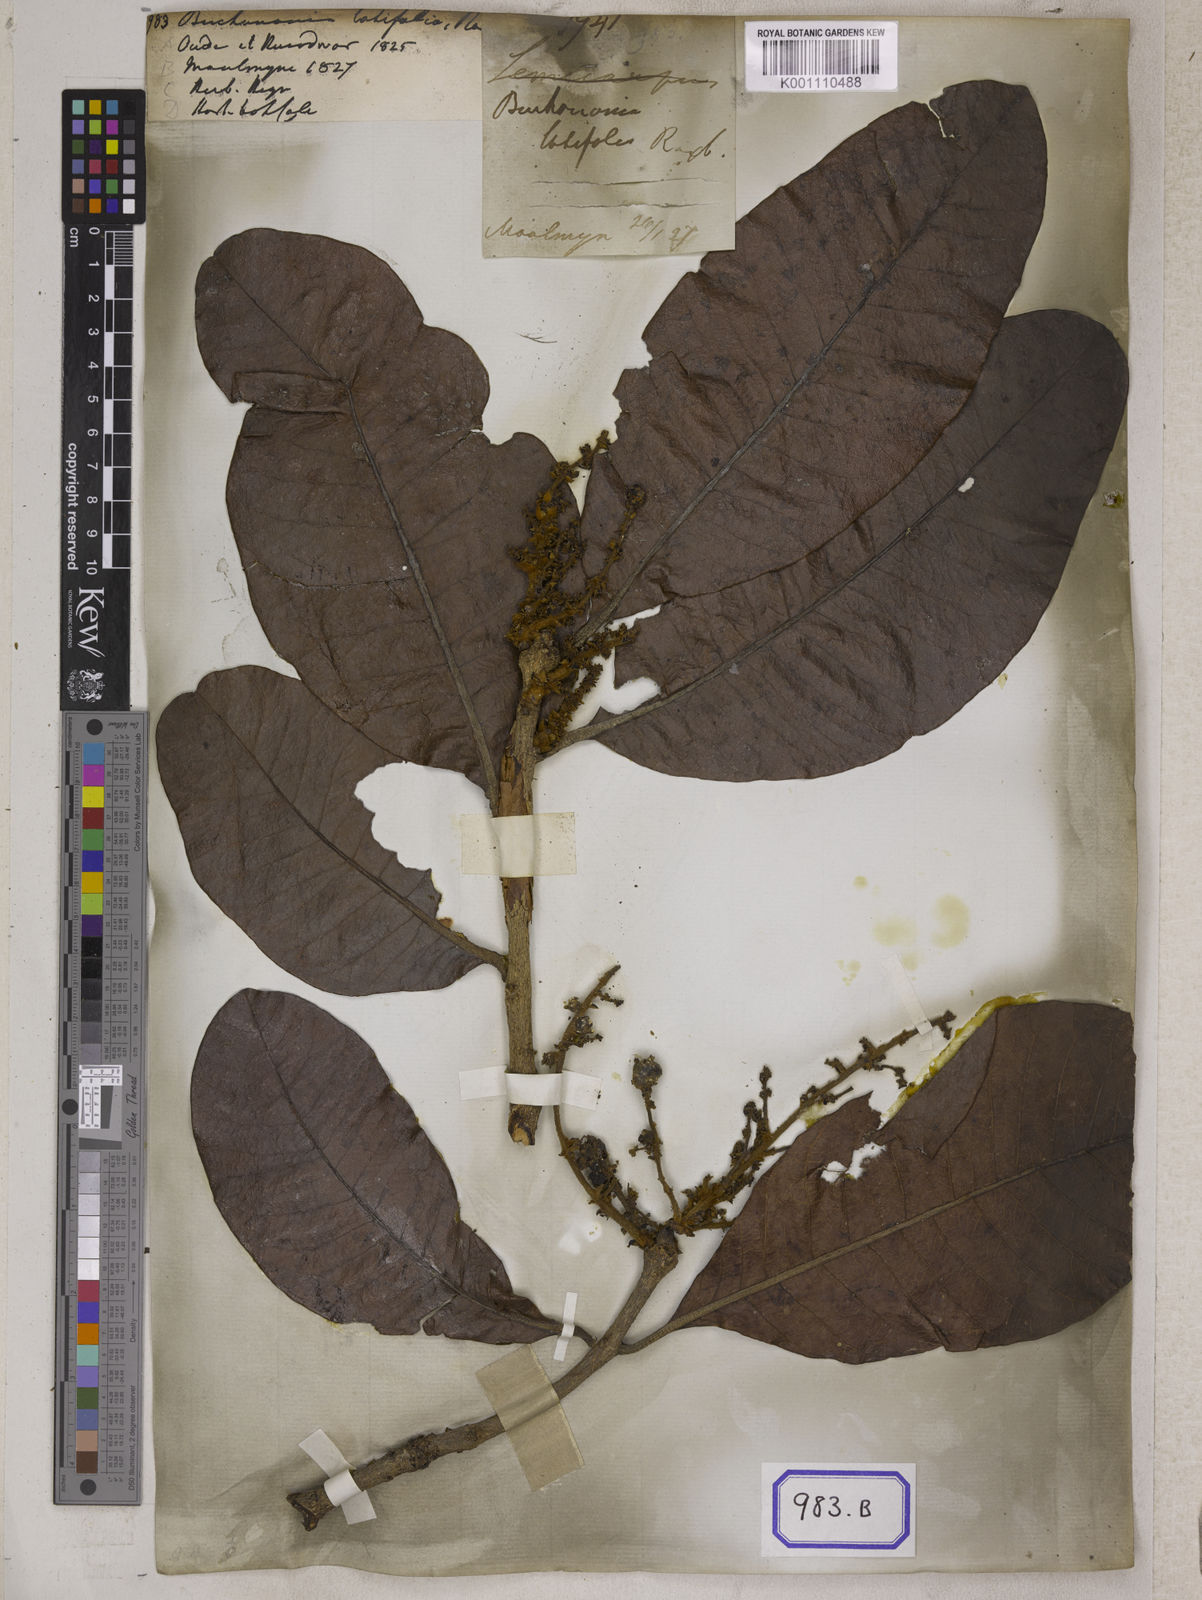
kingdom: Plantae
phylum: Tracheophyta
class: Magnoliopsida
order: Sapindales
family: Anacardiaceae
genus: Buchanania
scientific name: Buchanania cochinchinensis
